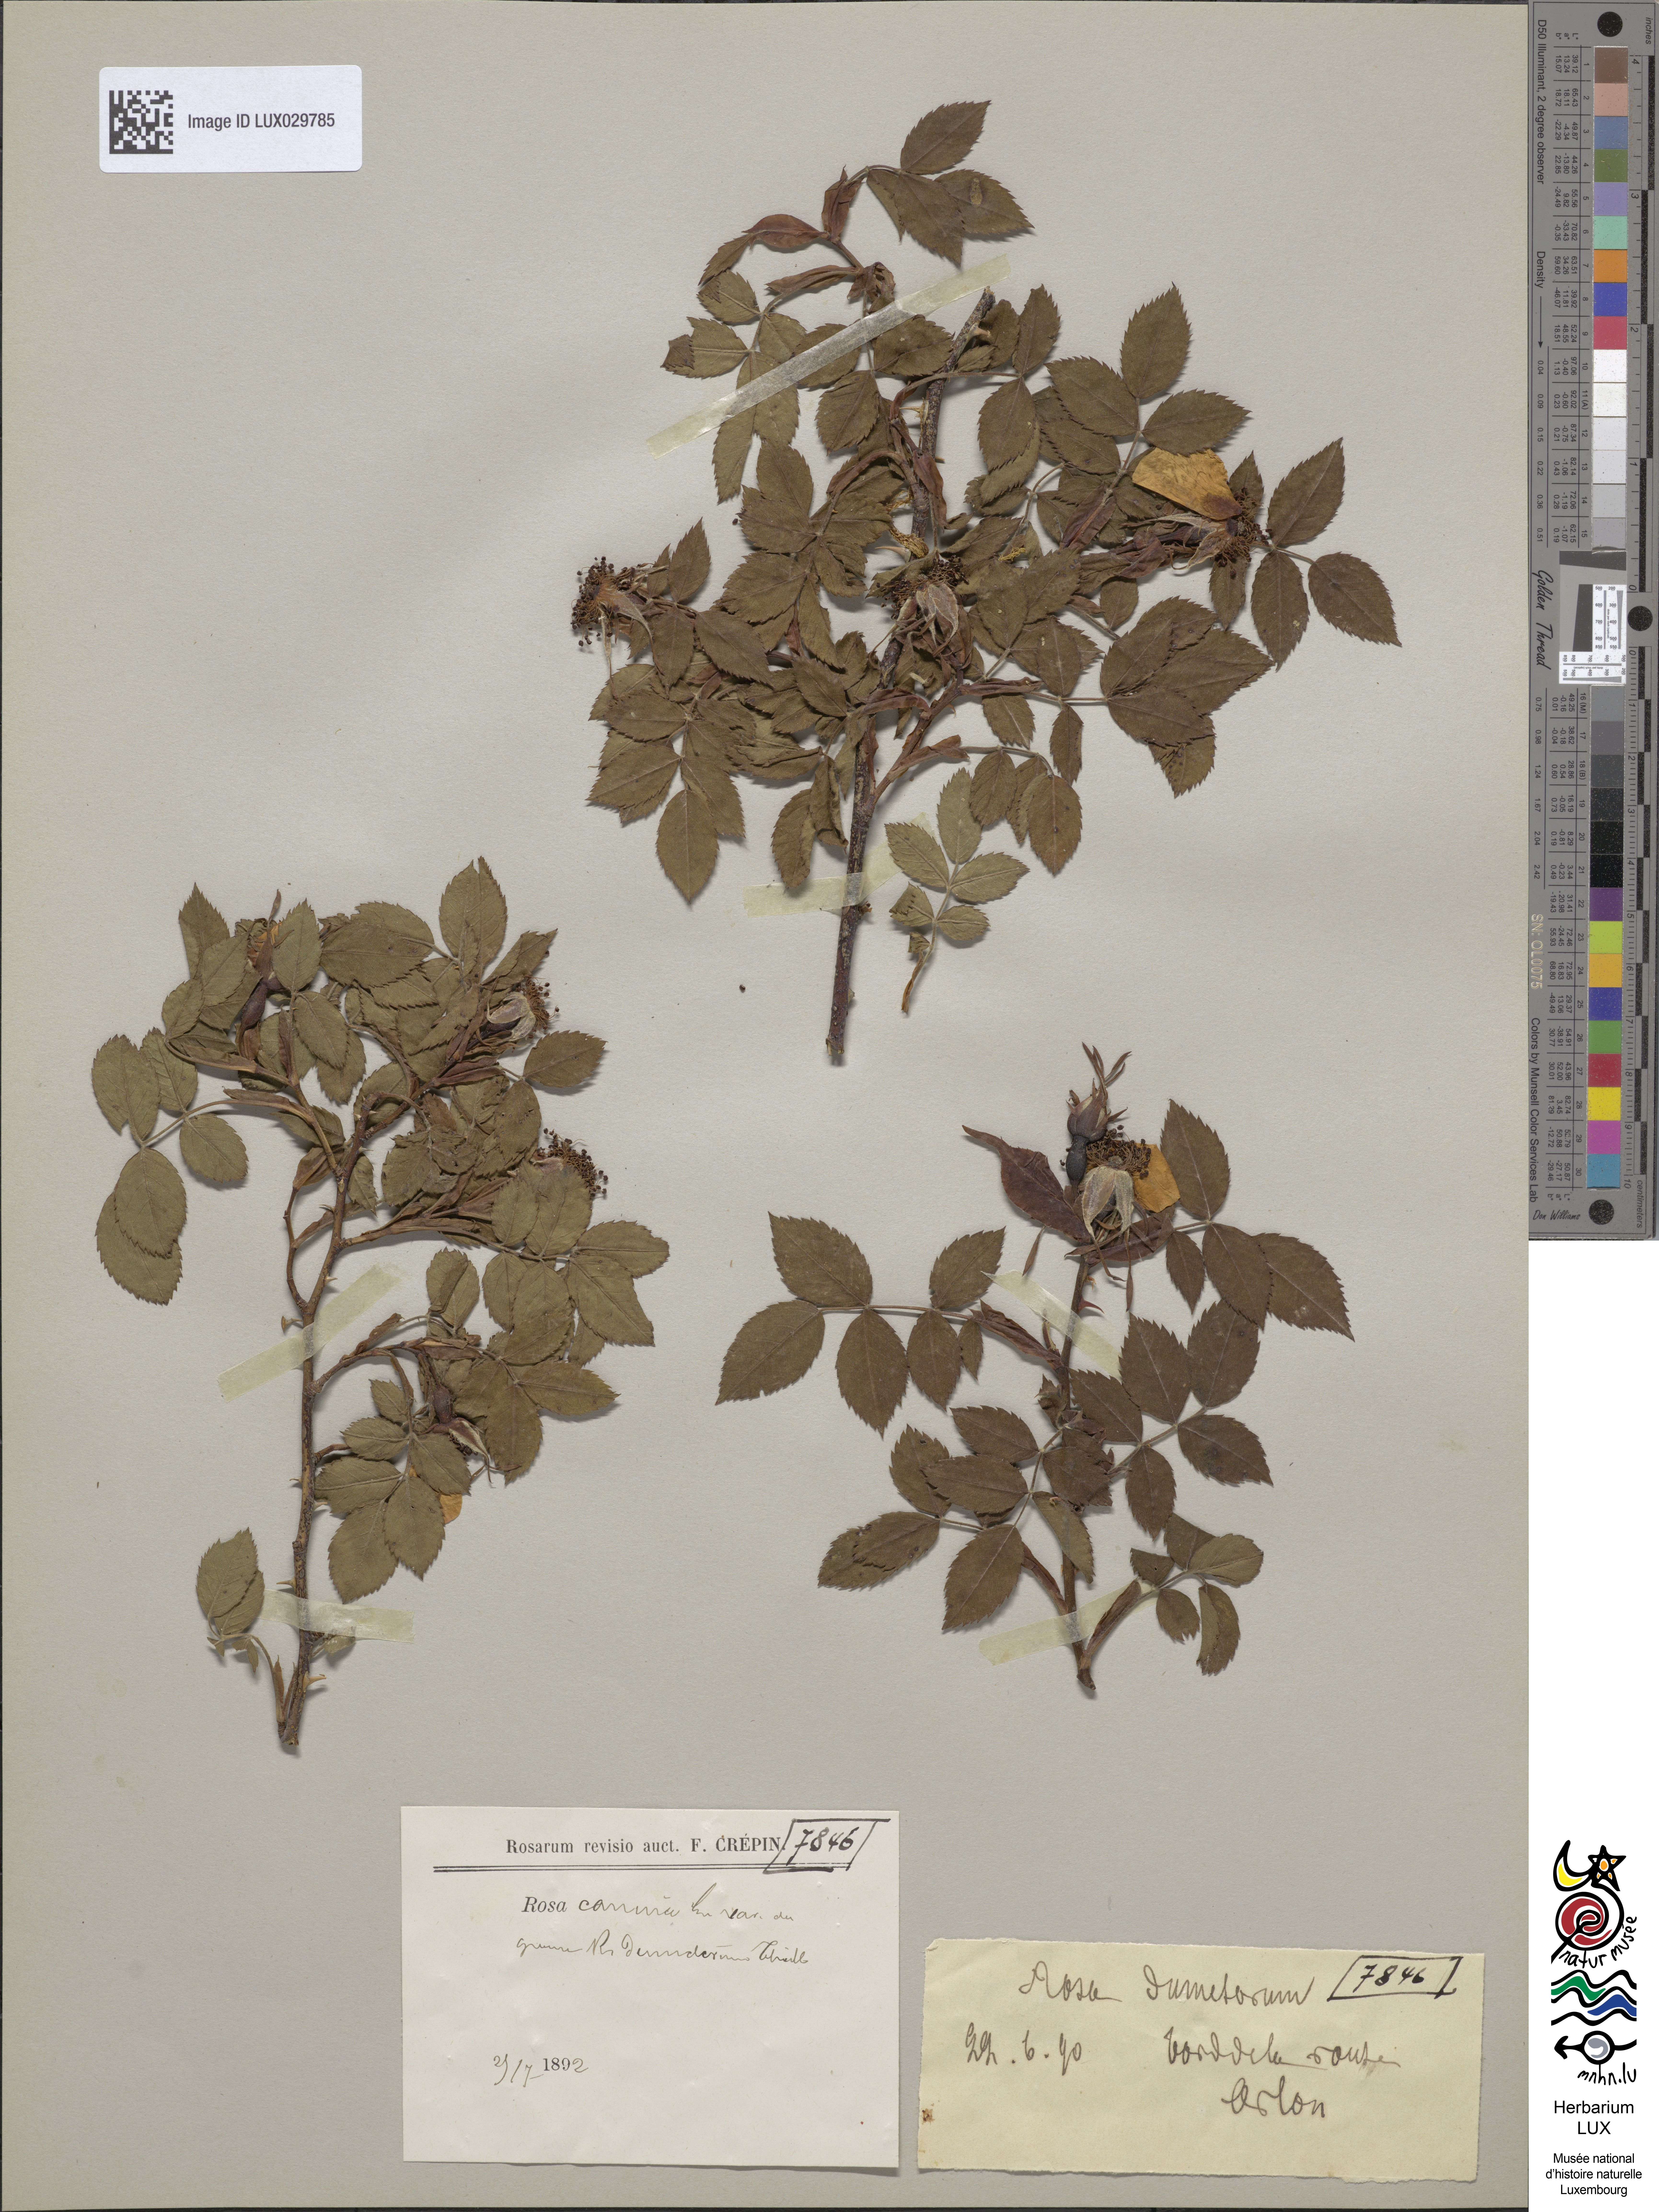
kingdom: Plantae
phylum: Tracheophyta
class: Magnoliopsida
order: Rosales
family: Rosaceae
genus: Rosa
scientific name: Rosa canina
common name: Dog rose
